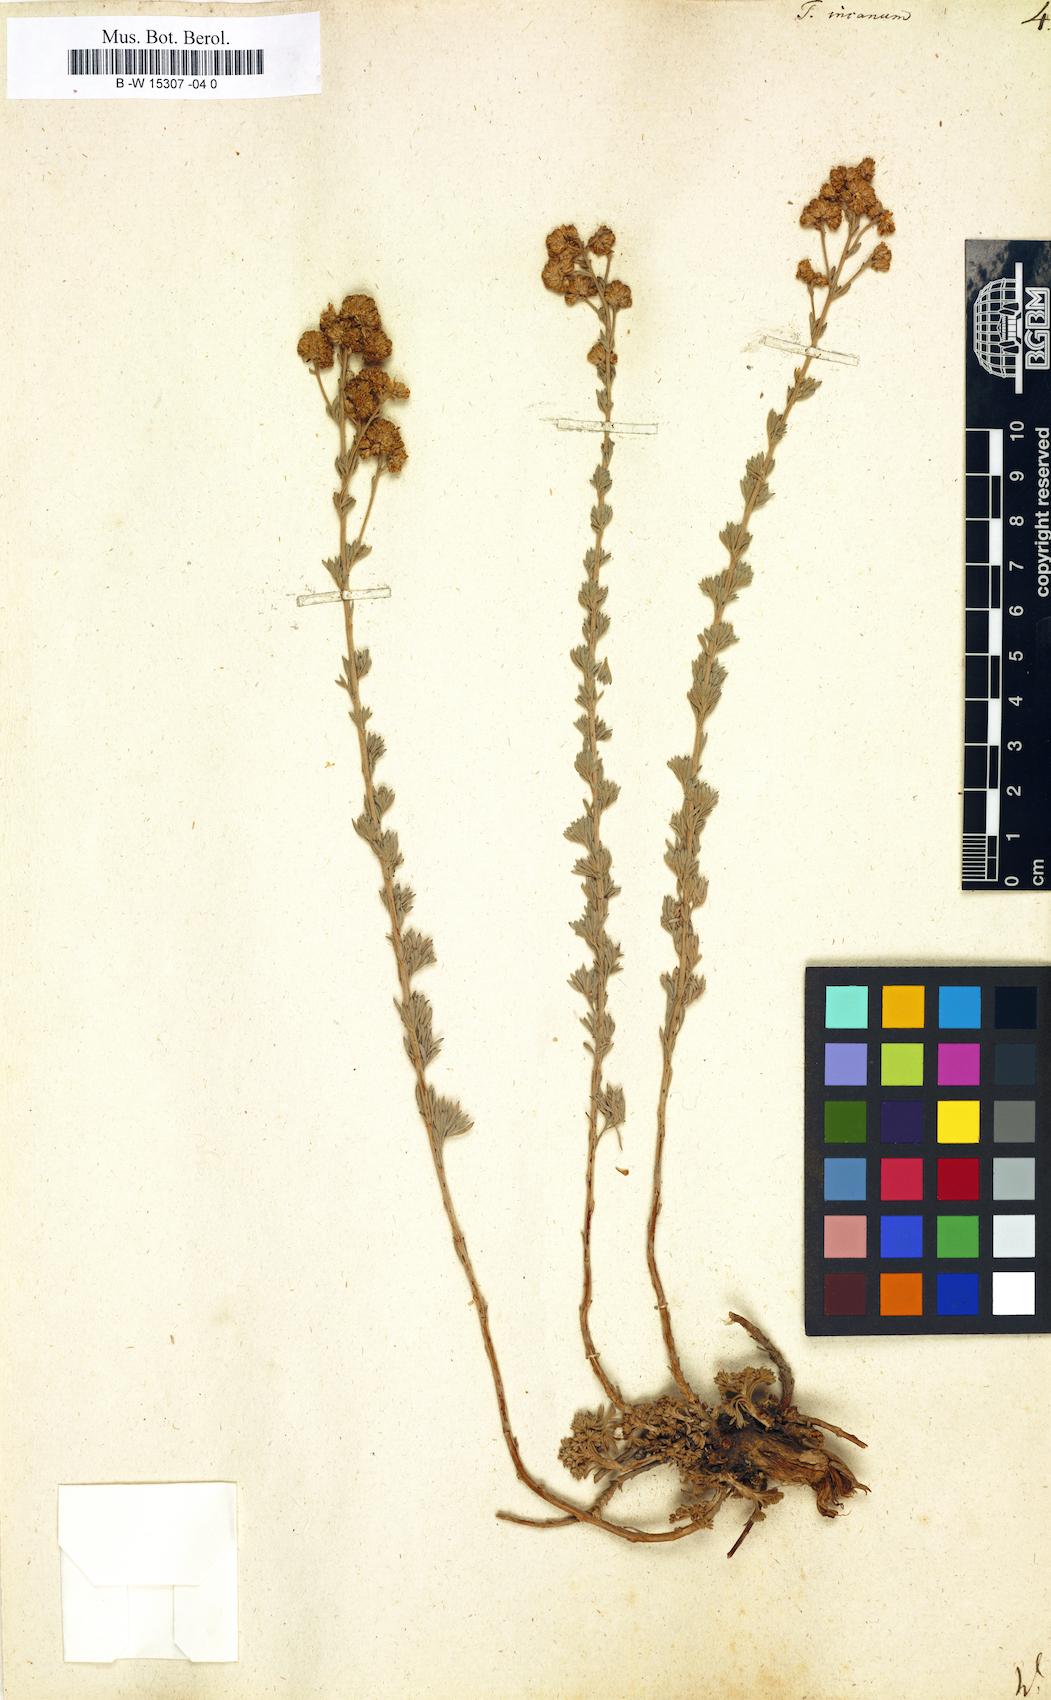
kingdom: Plantae
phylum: Tracheophyta
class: Magnoliopsida
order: Asterales
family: Asteraceae
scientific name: Asteraceae
